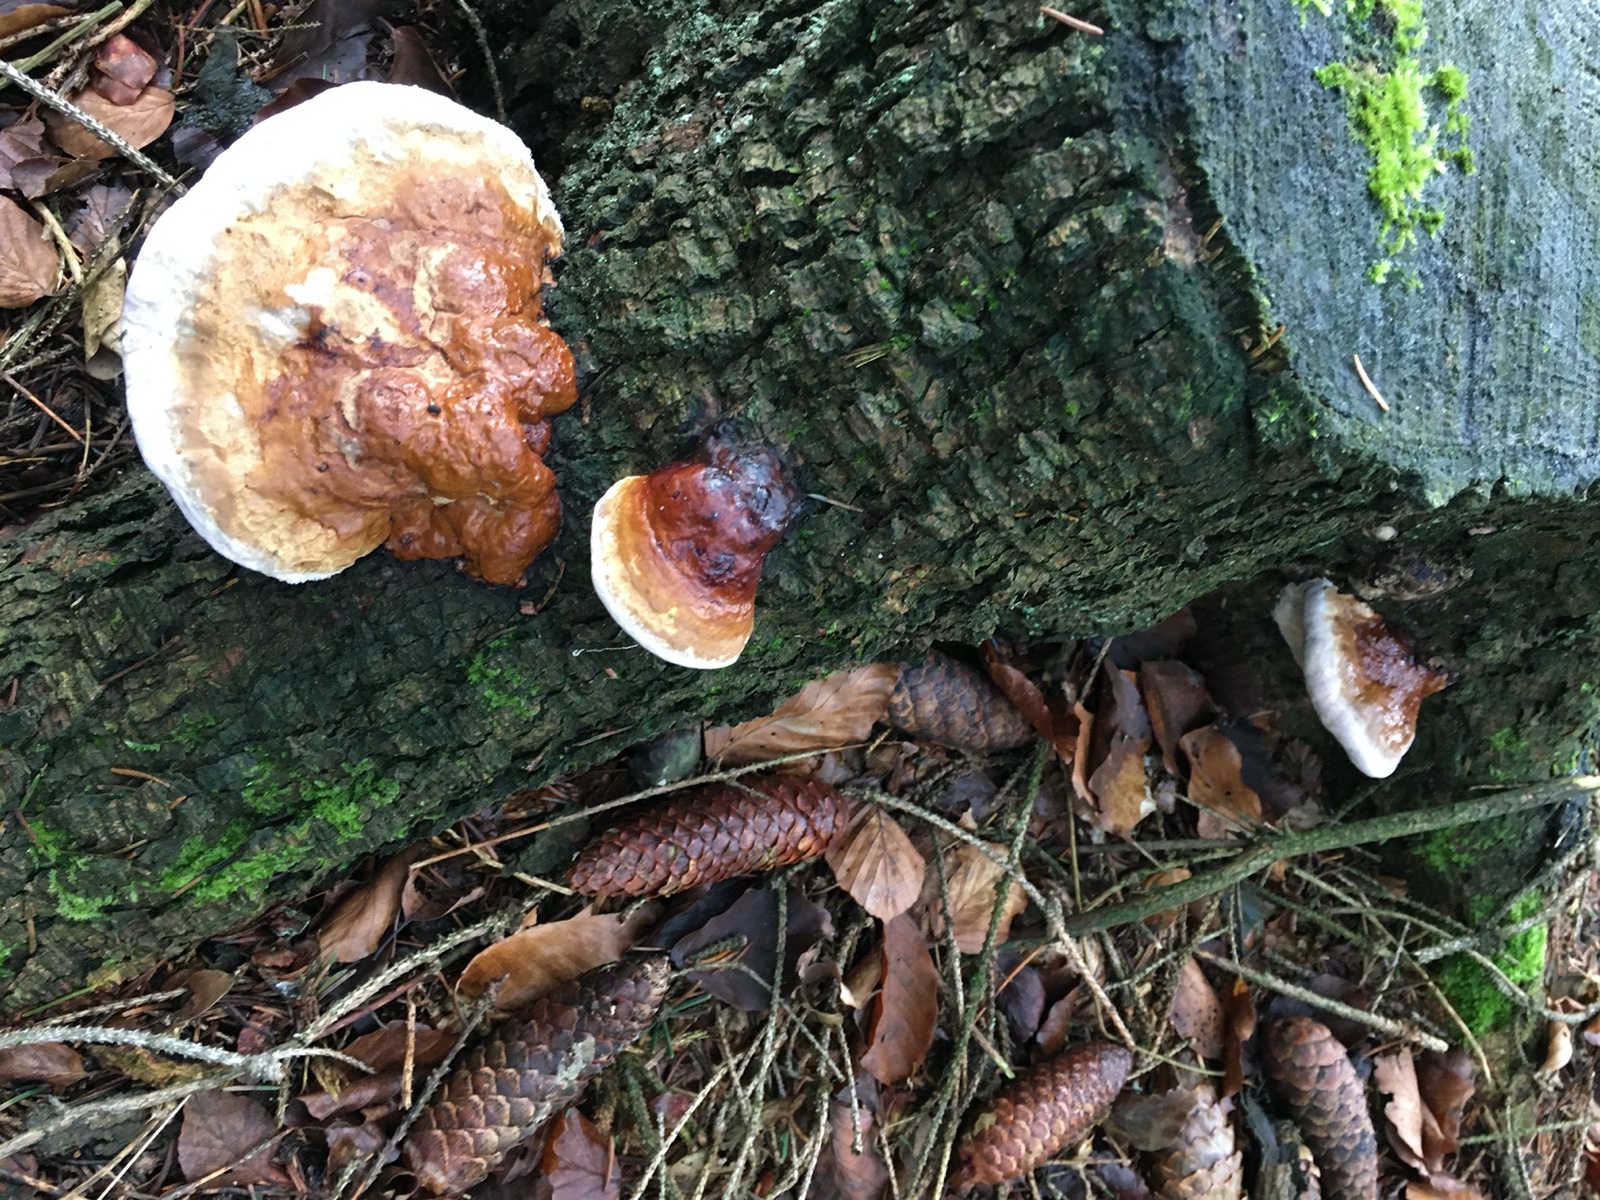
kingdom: Fungi
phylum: Basidiomycota
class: Agaricomycetes
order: Polyporales
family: Fomitopsidaceae
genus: Fomitopsis
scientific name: Fomitopsis pinicola
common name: randbæltet hovporesvamp
